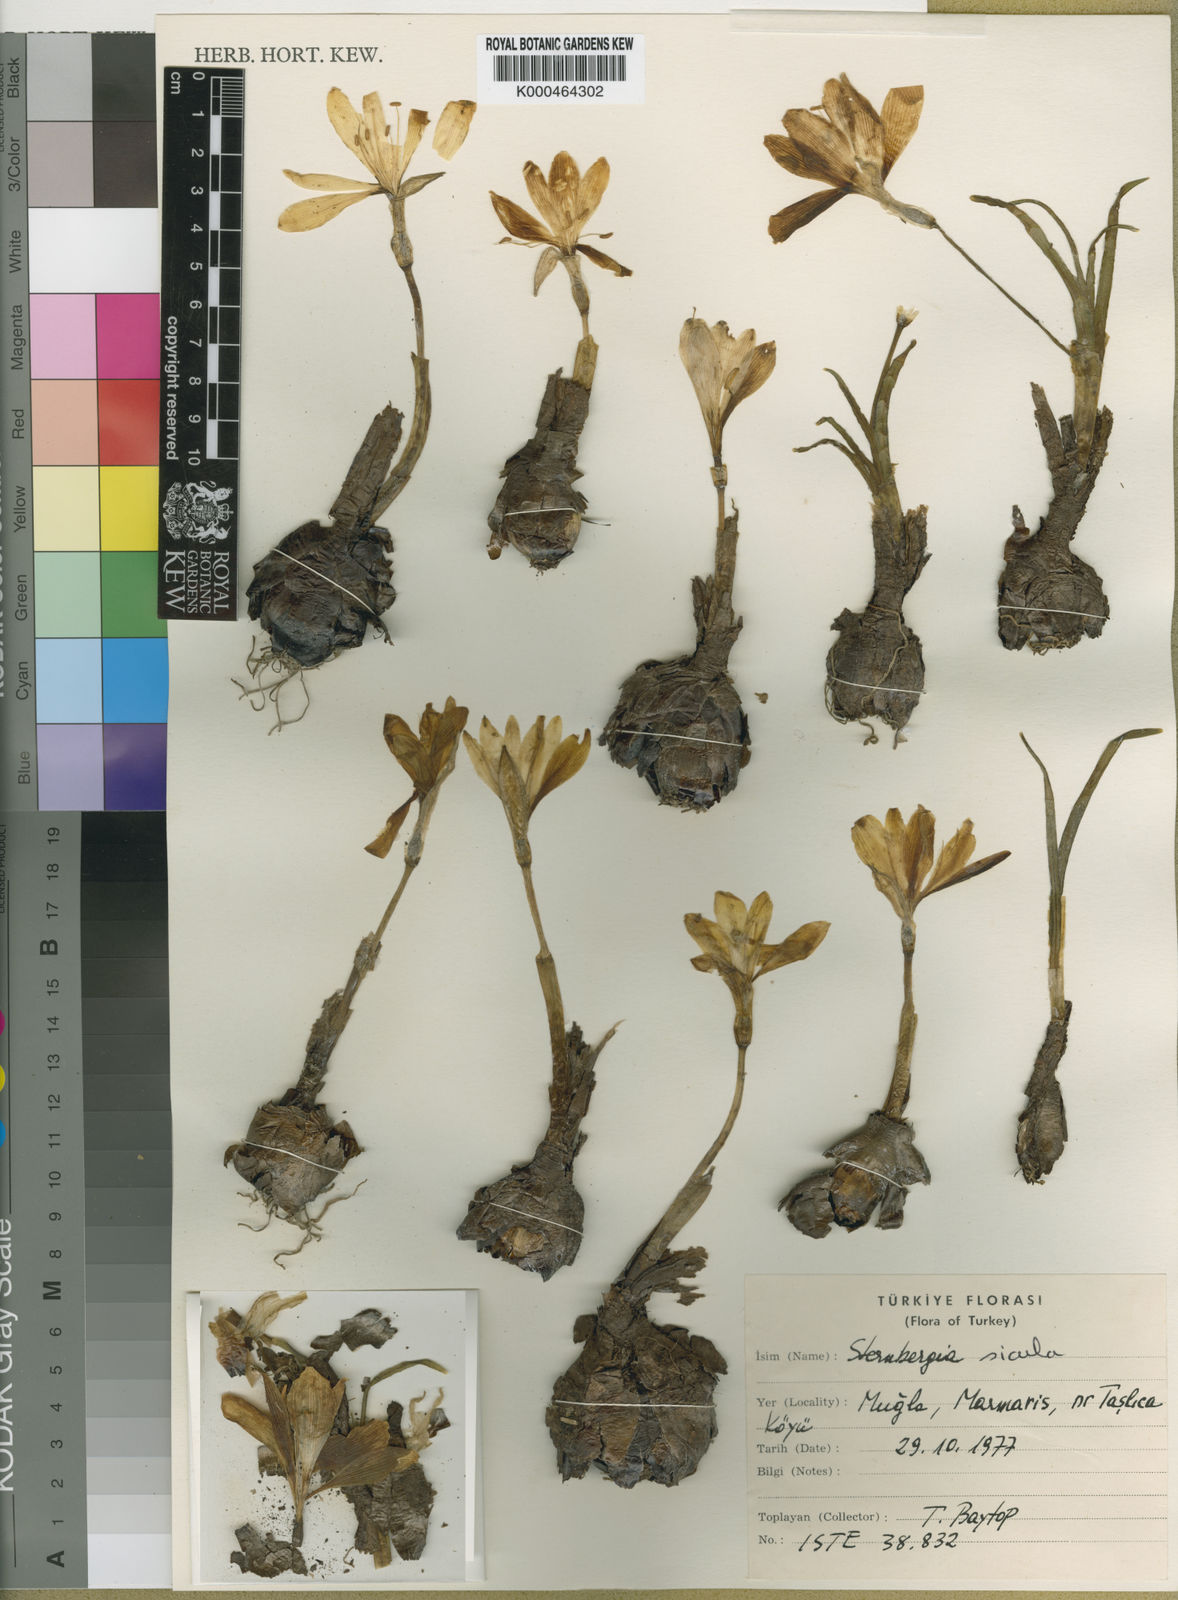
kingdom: Plantae
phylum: Tracheophyta
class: Liliopsida
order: Asparagales
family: Amaryllidaceae
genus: Sternbergia
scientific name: Sternbergia
